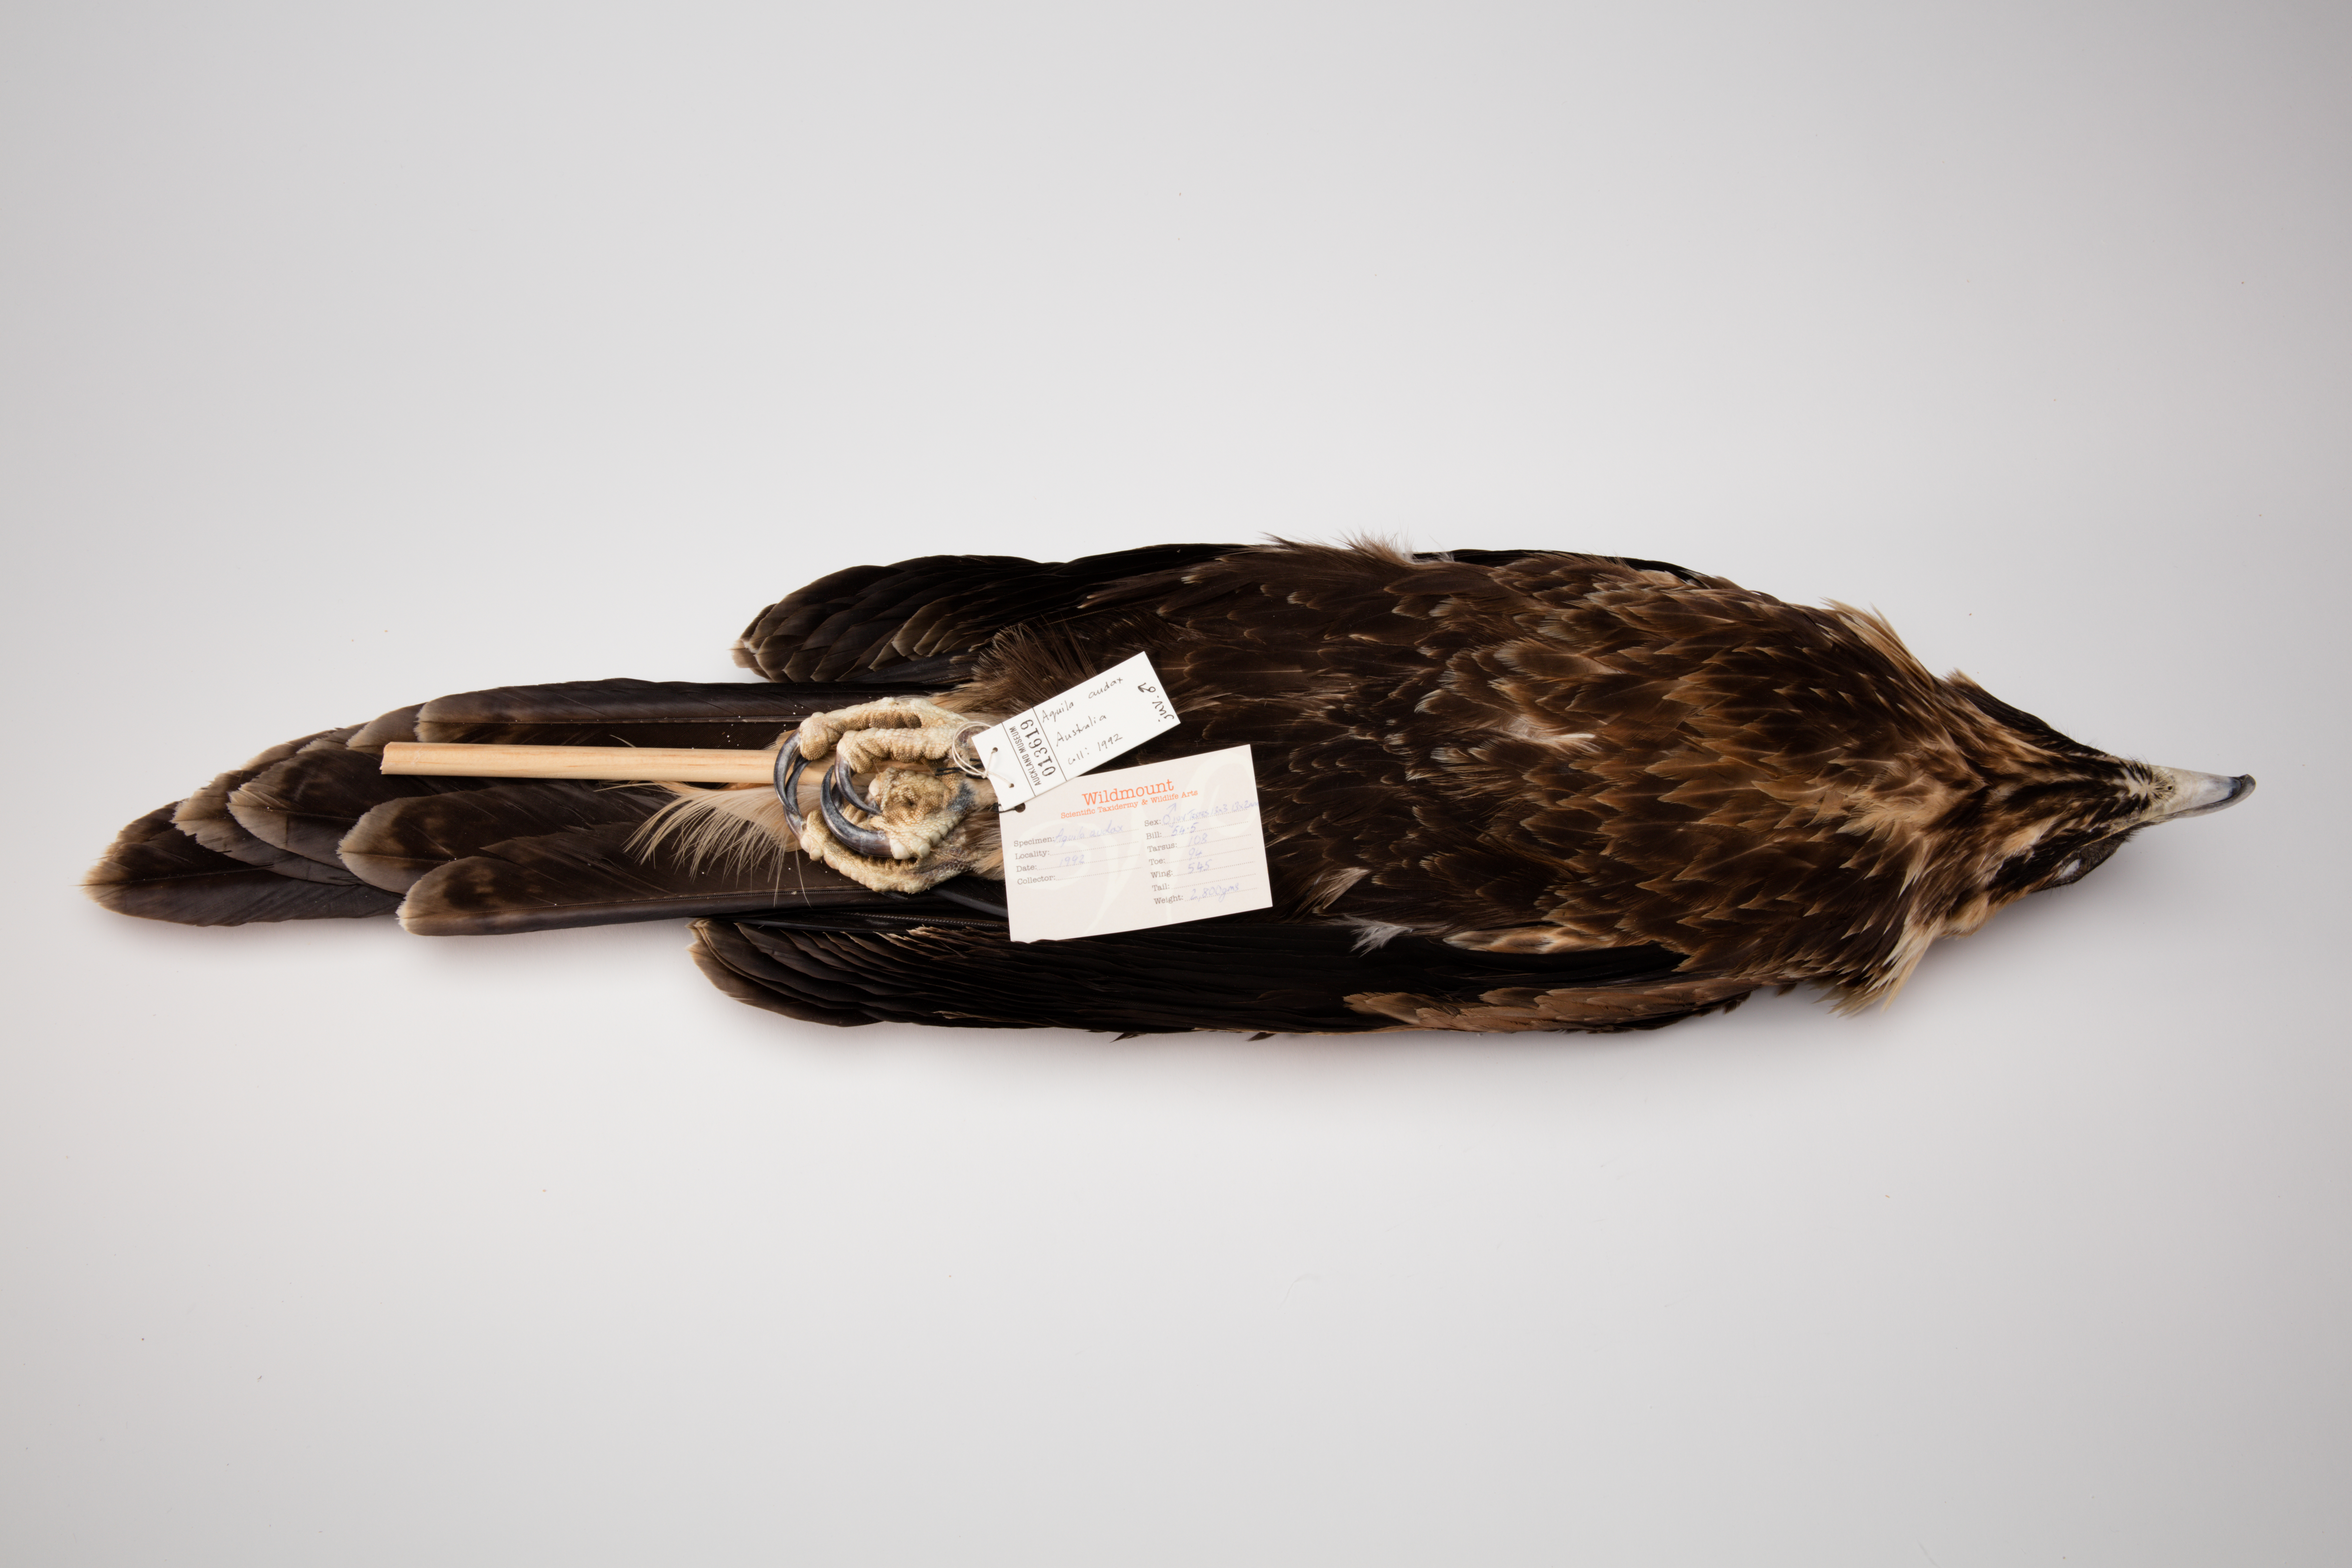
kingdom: Animalia
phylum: Chordata
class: Aves
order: Accipitriformes
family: Accipitridae
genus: Aquila
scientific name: Aquila audax
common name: Wedge-tailed eagle
